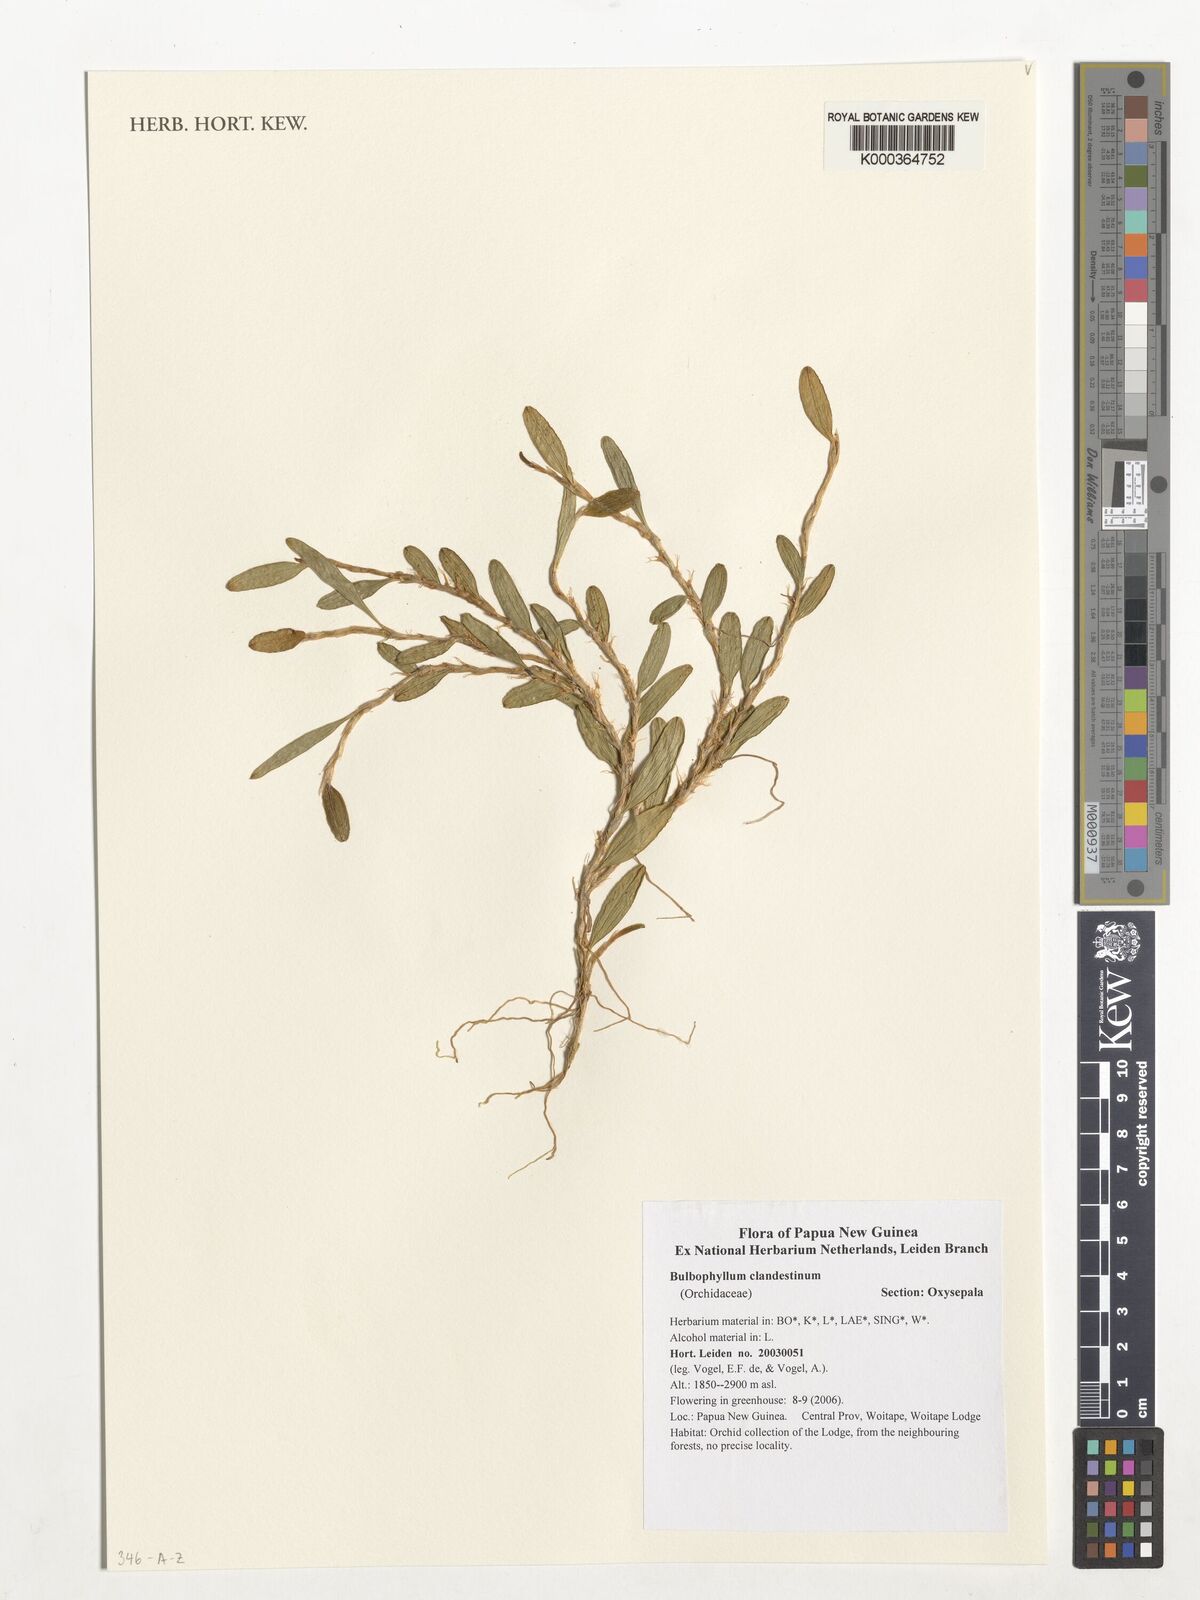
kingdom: Plantae
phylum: Tracheophyta
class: Liliopsida
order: Asparagales
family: Orchidaceae
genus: Bulbophyllum
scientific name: Bulbophyllum clandestinum
